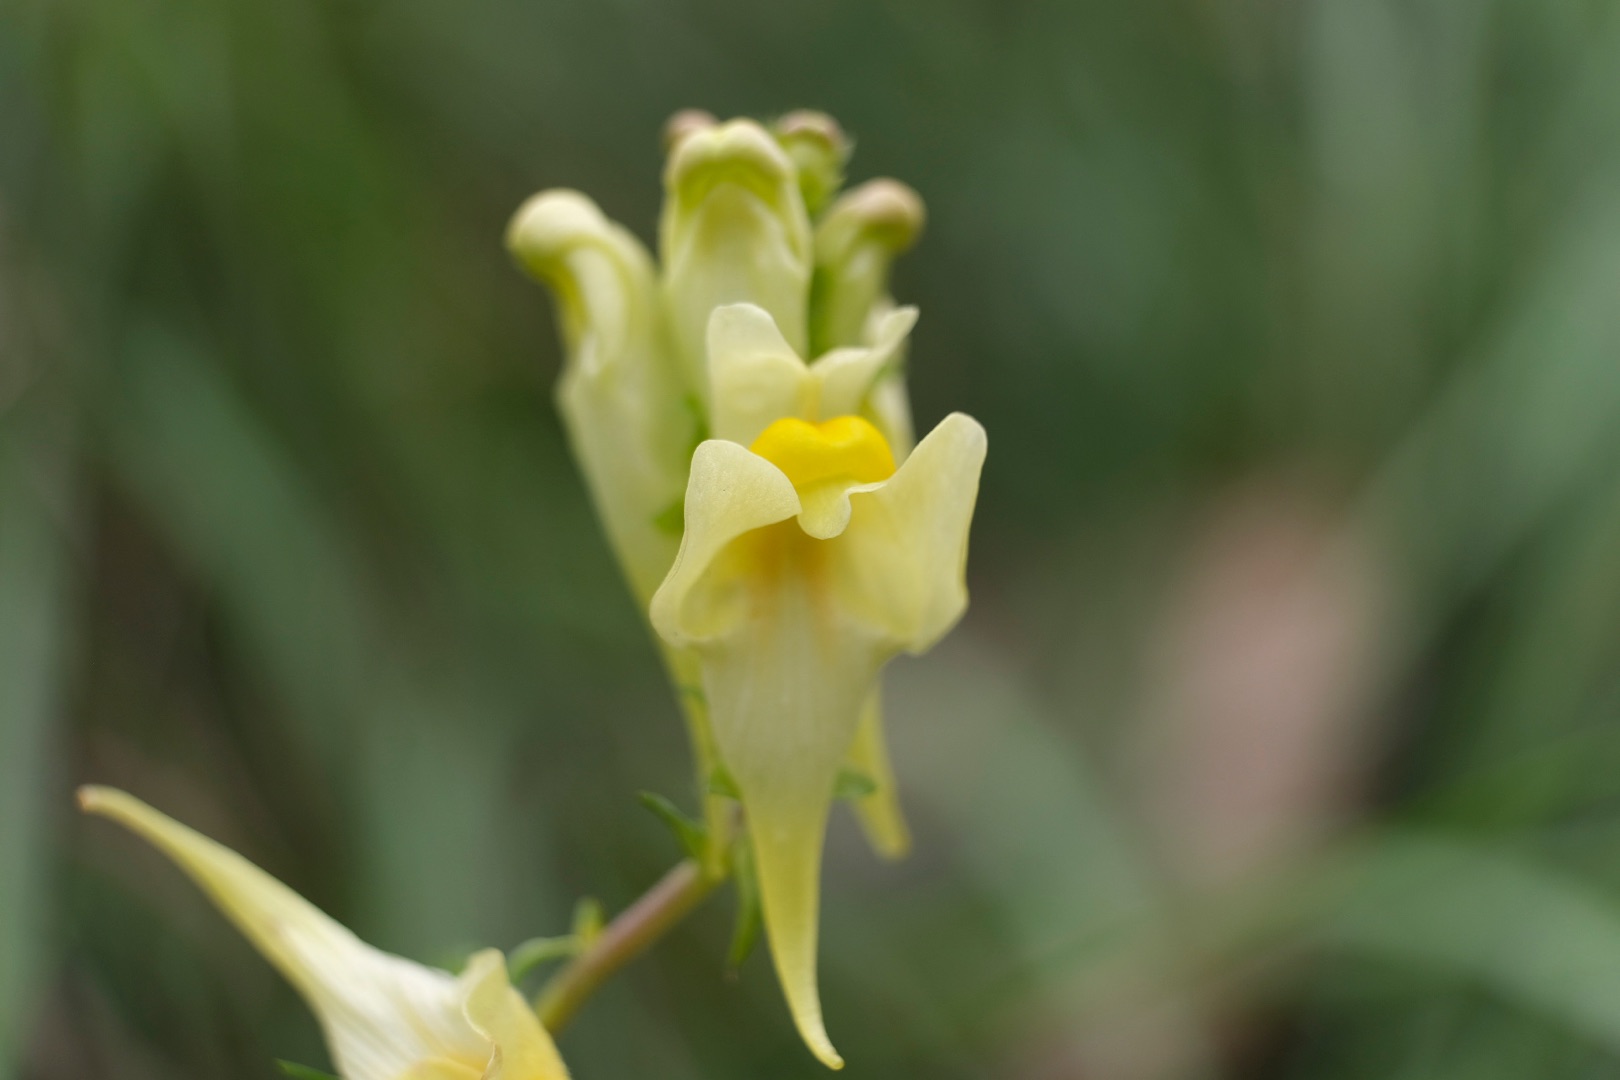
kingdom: Plantae
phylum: Tracheophyta
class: Magnoliopsida
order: Lamiales
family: Plantaginaceae
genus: Linaria
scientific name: Linaria vulgaris
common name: Almindelig torskemund
